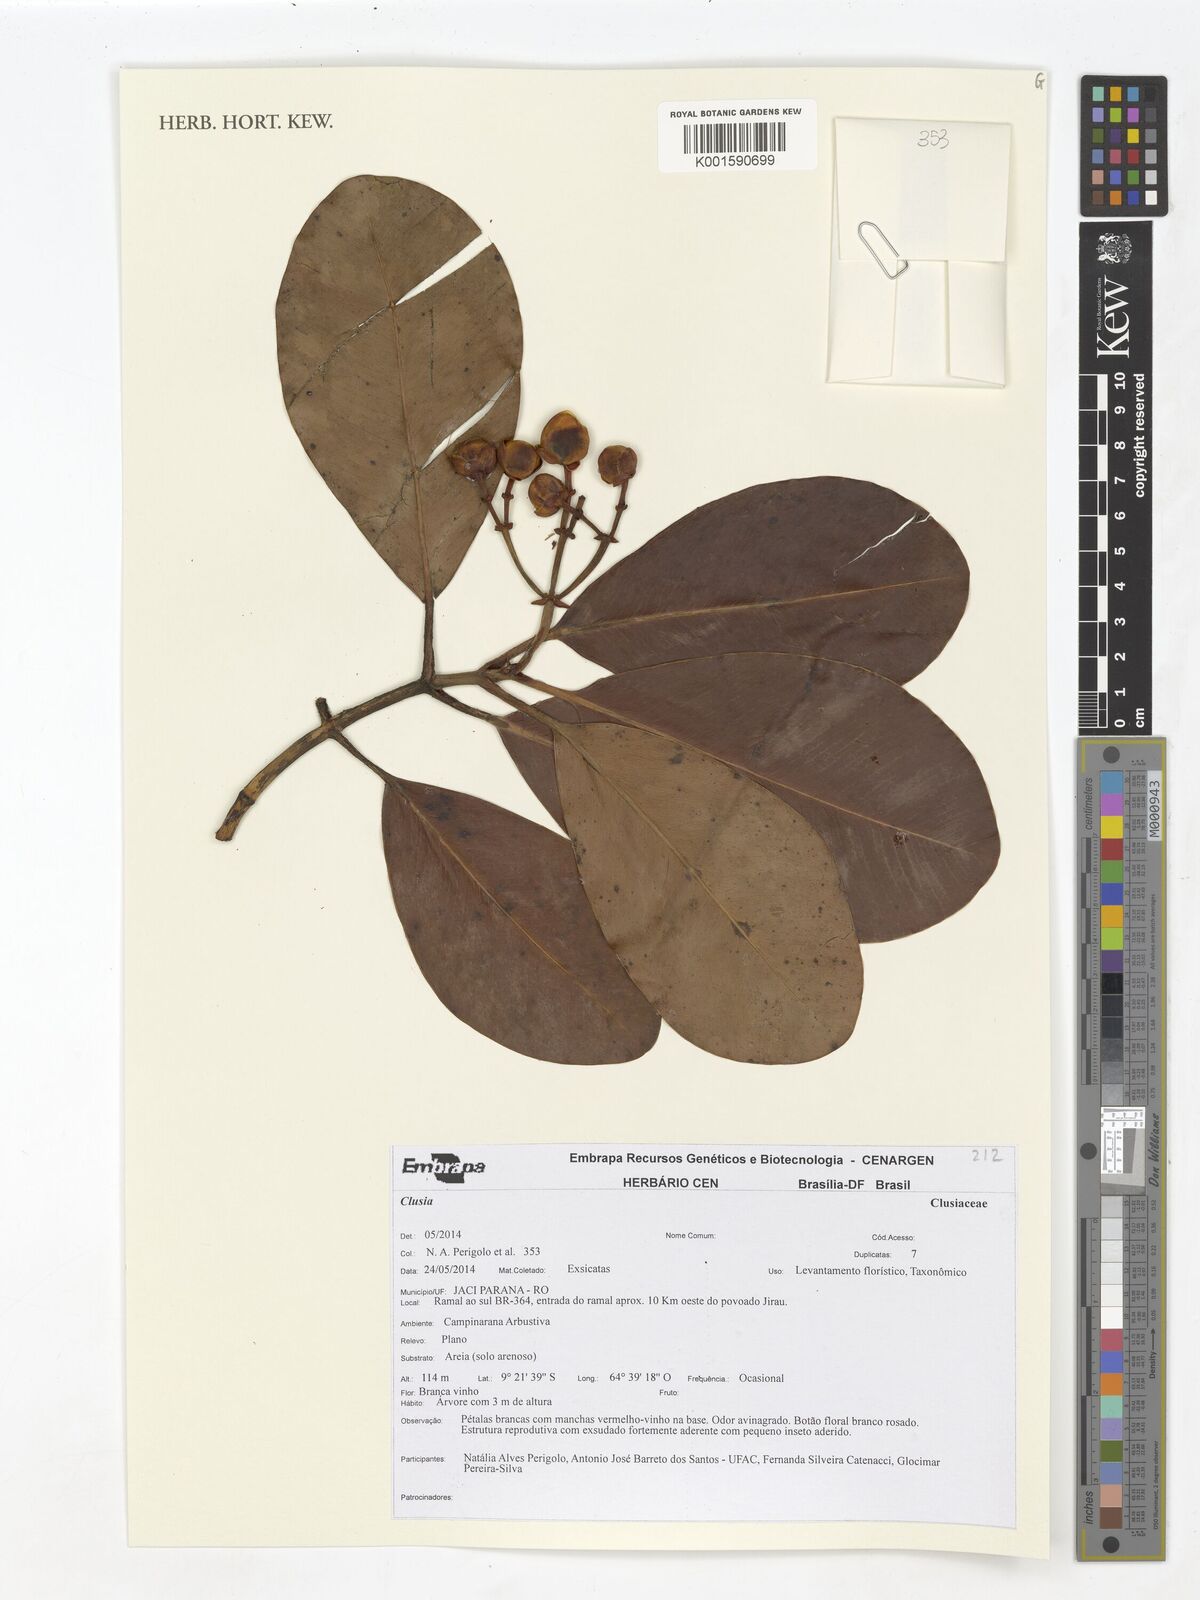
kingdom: Plantae
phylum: Tracheophyta
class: Magnoliopsida
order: Malpighiales
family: Clusiaceae
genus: Clusia
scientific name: Clusia
